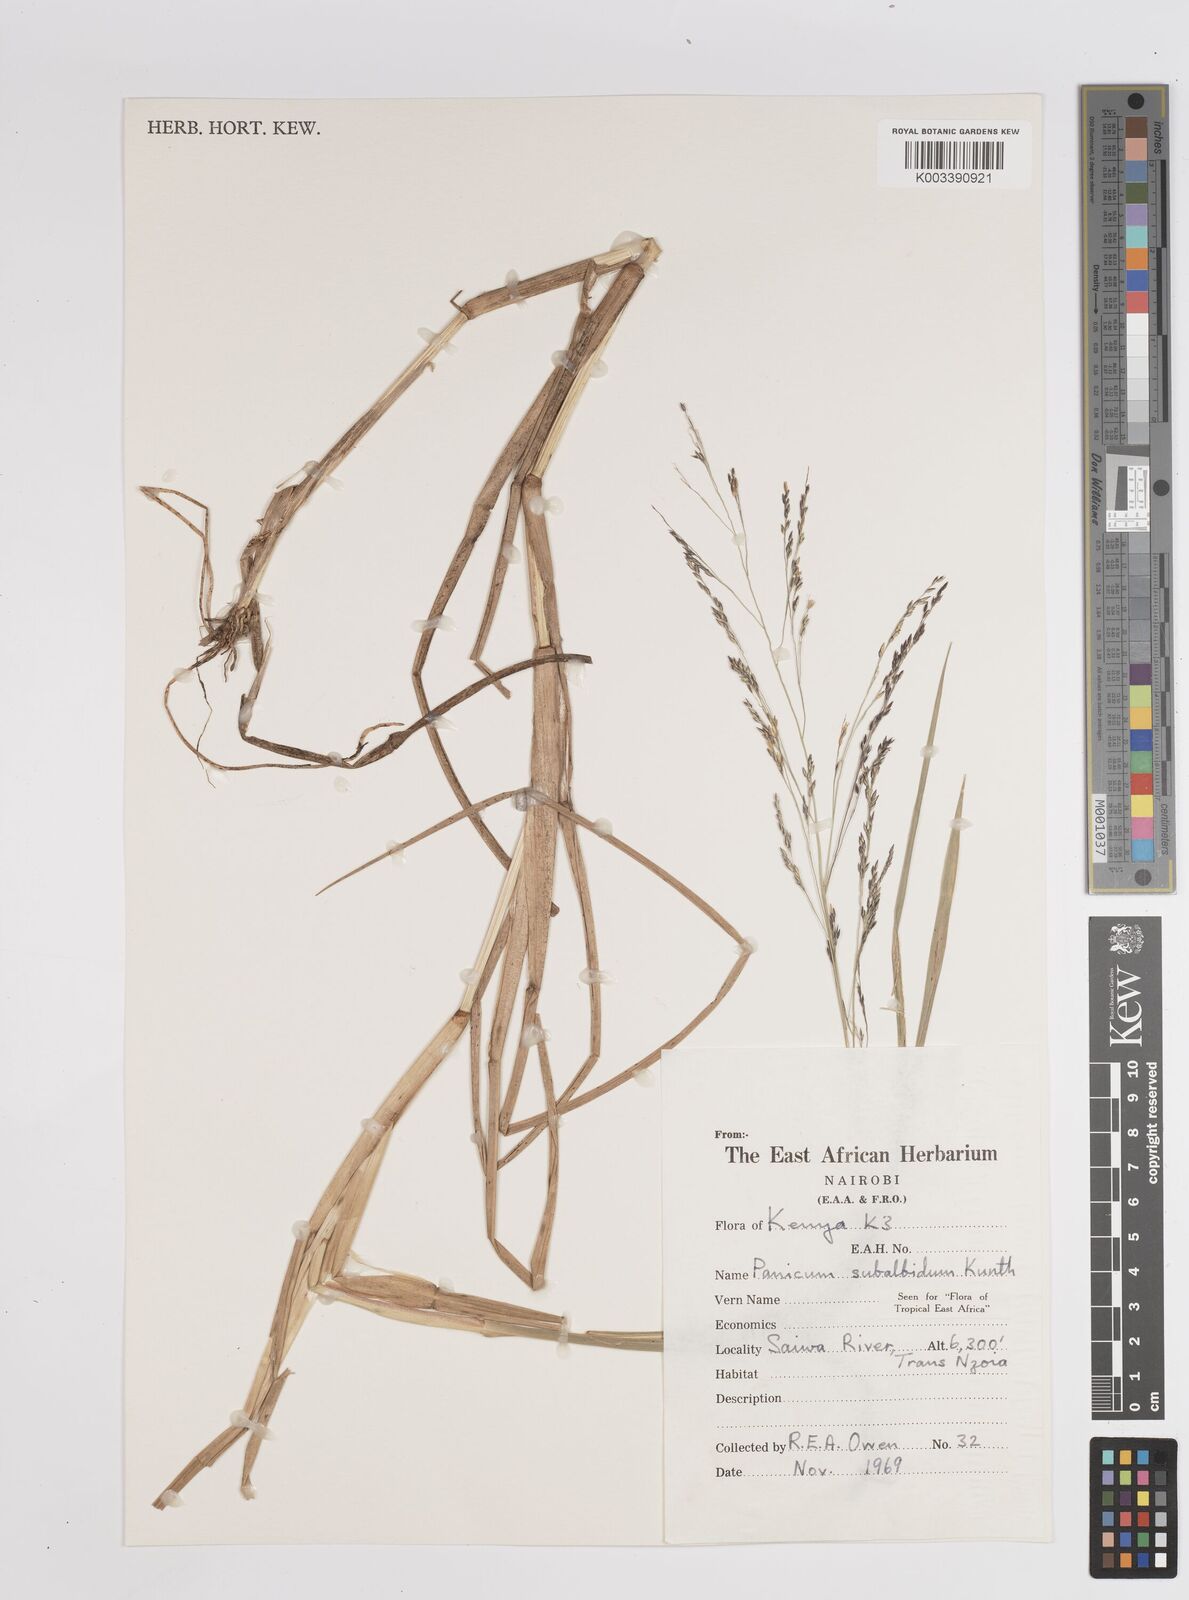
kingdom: Plantae
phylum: Tracheophyta
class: Liliopsida
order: Poales
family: Poaceae
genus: Panicum
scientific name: Panicum subalbidum
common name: Elbow buffalo grass
